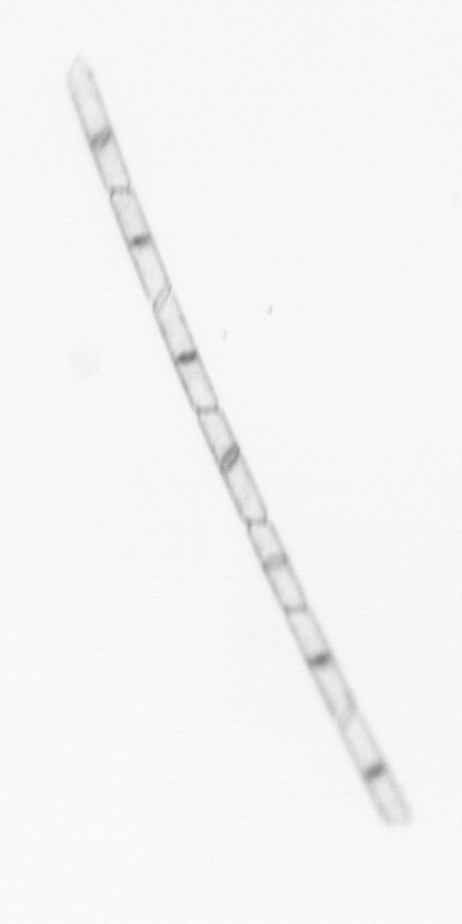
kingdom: Chromista
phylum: Ochrophyta
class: Bacillariophyceae
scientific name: Bacillariophyceae
